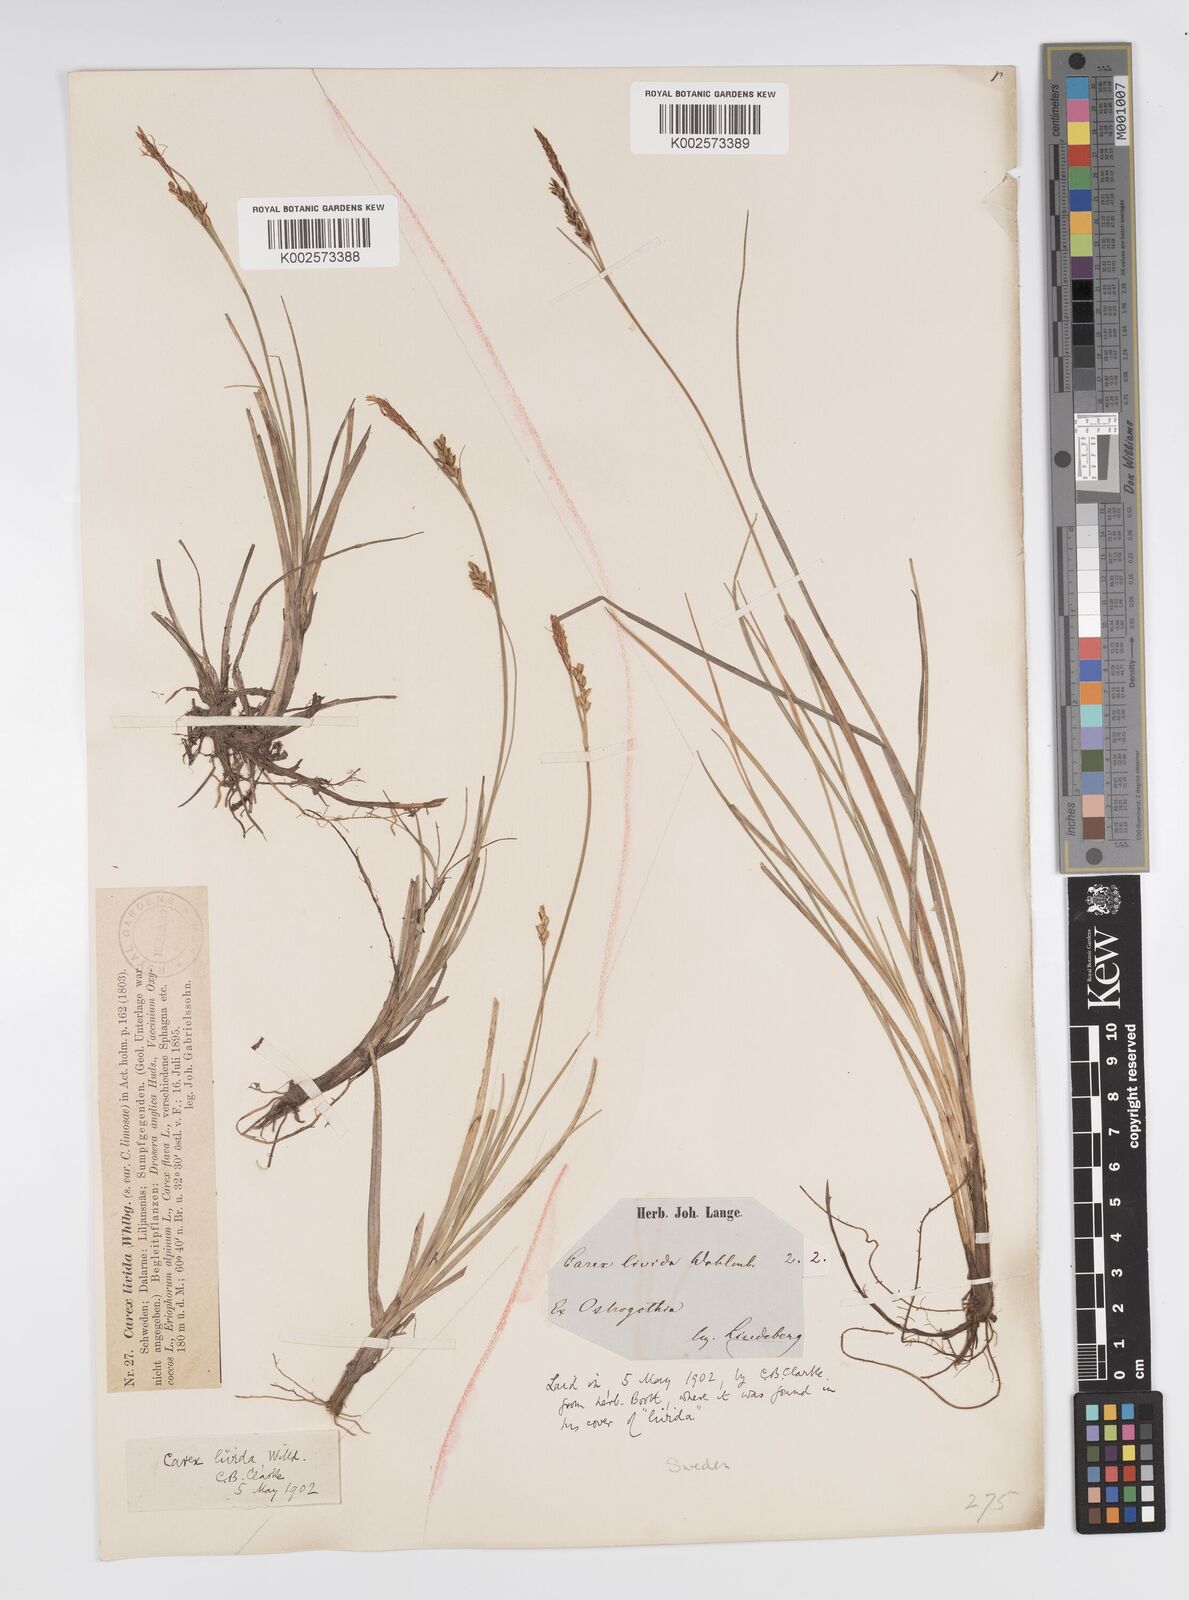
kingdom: Plantae
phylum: Tracheophyta
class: Liliopsida
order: Poales
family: Cyperaceae
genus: Carex
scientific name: Carex livida
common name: Livid sedge
